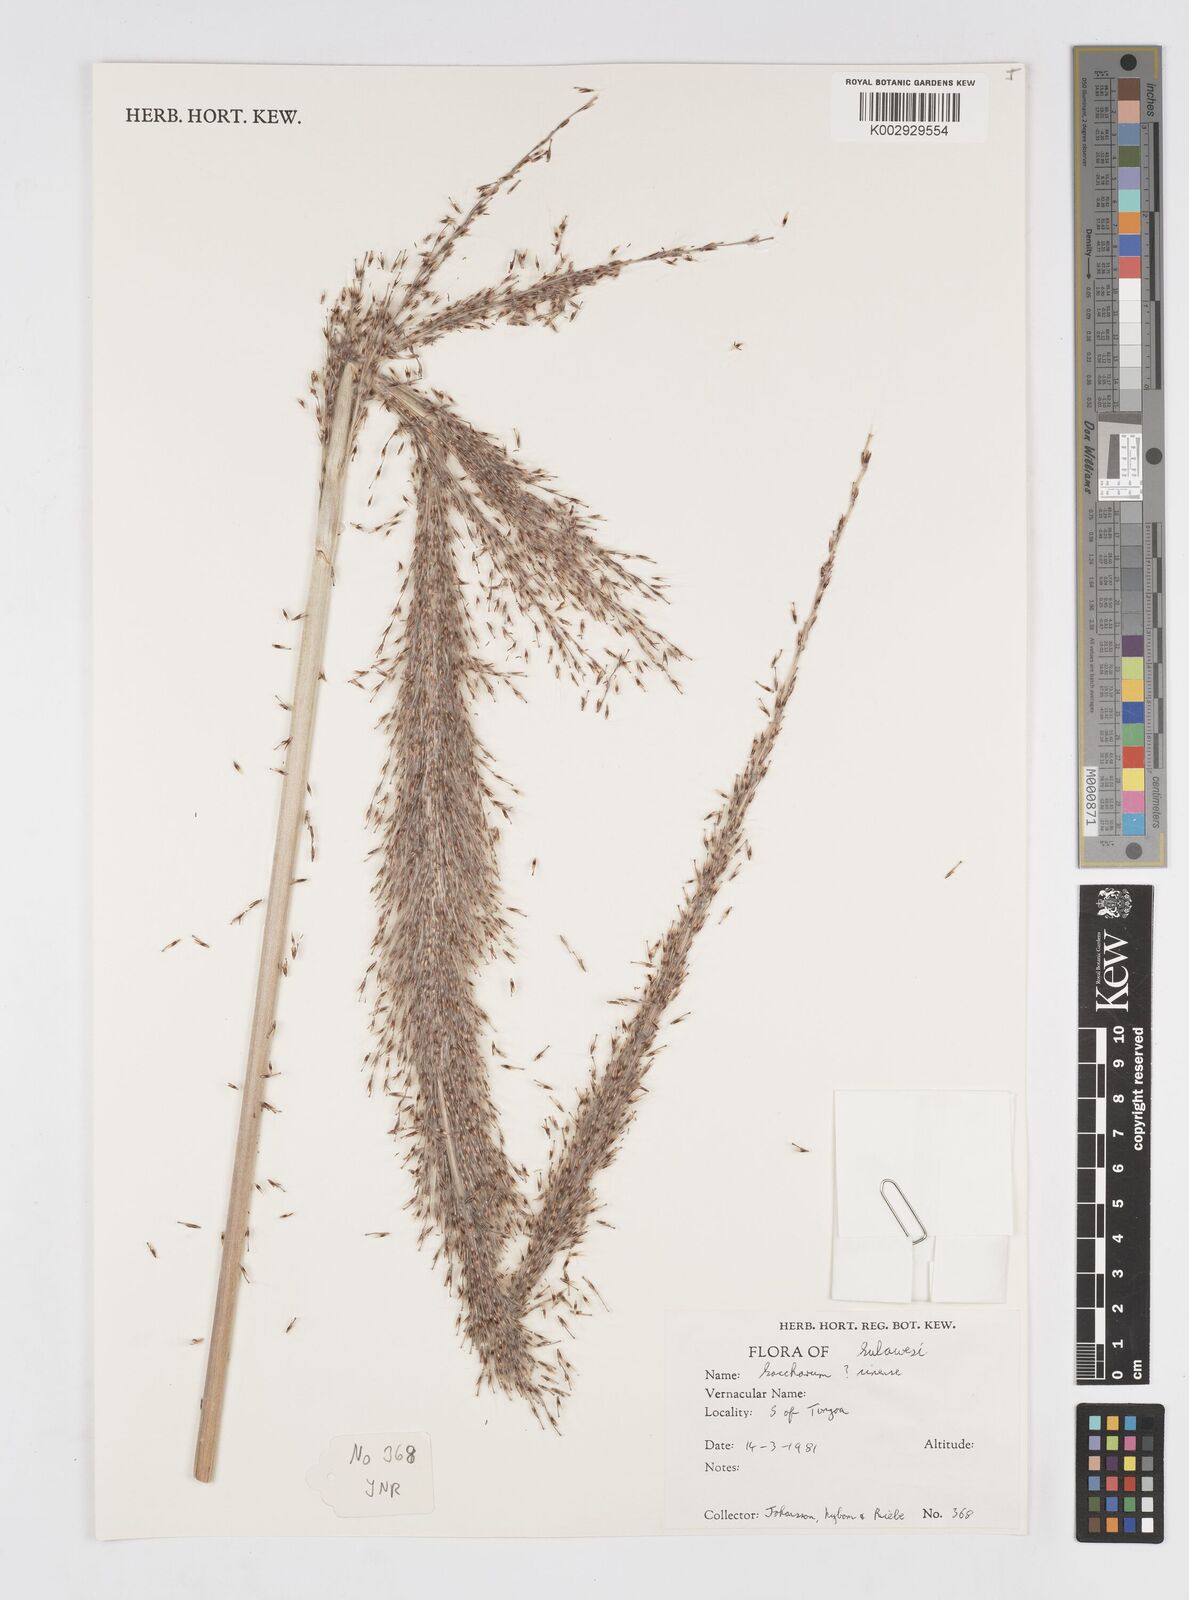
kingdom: Plantae
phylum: Tracheophyta
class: Liliopsida
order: Poales
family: Poaceae
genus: Saccharum
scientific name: Saccharum
